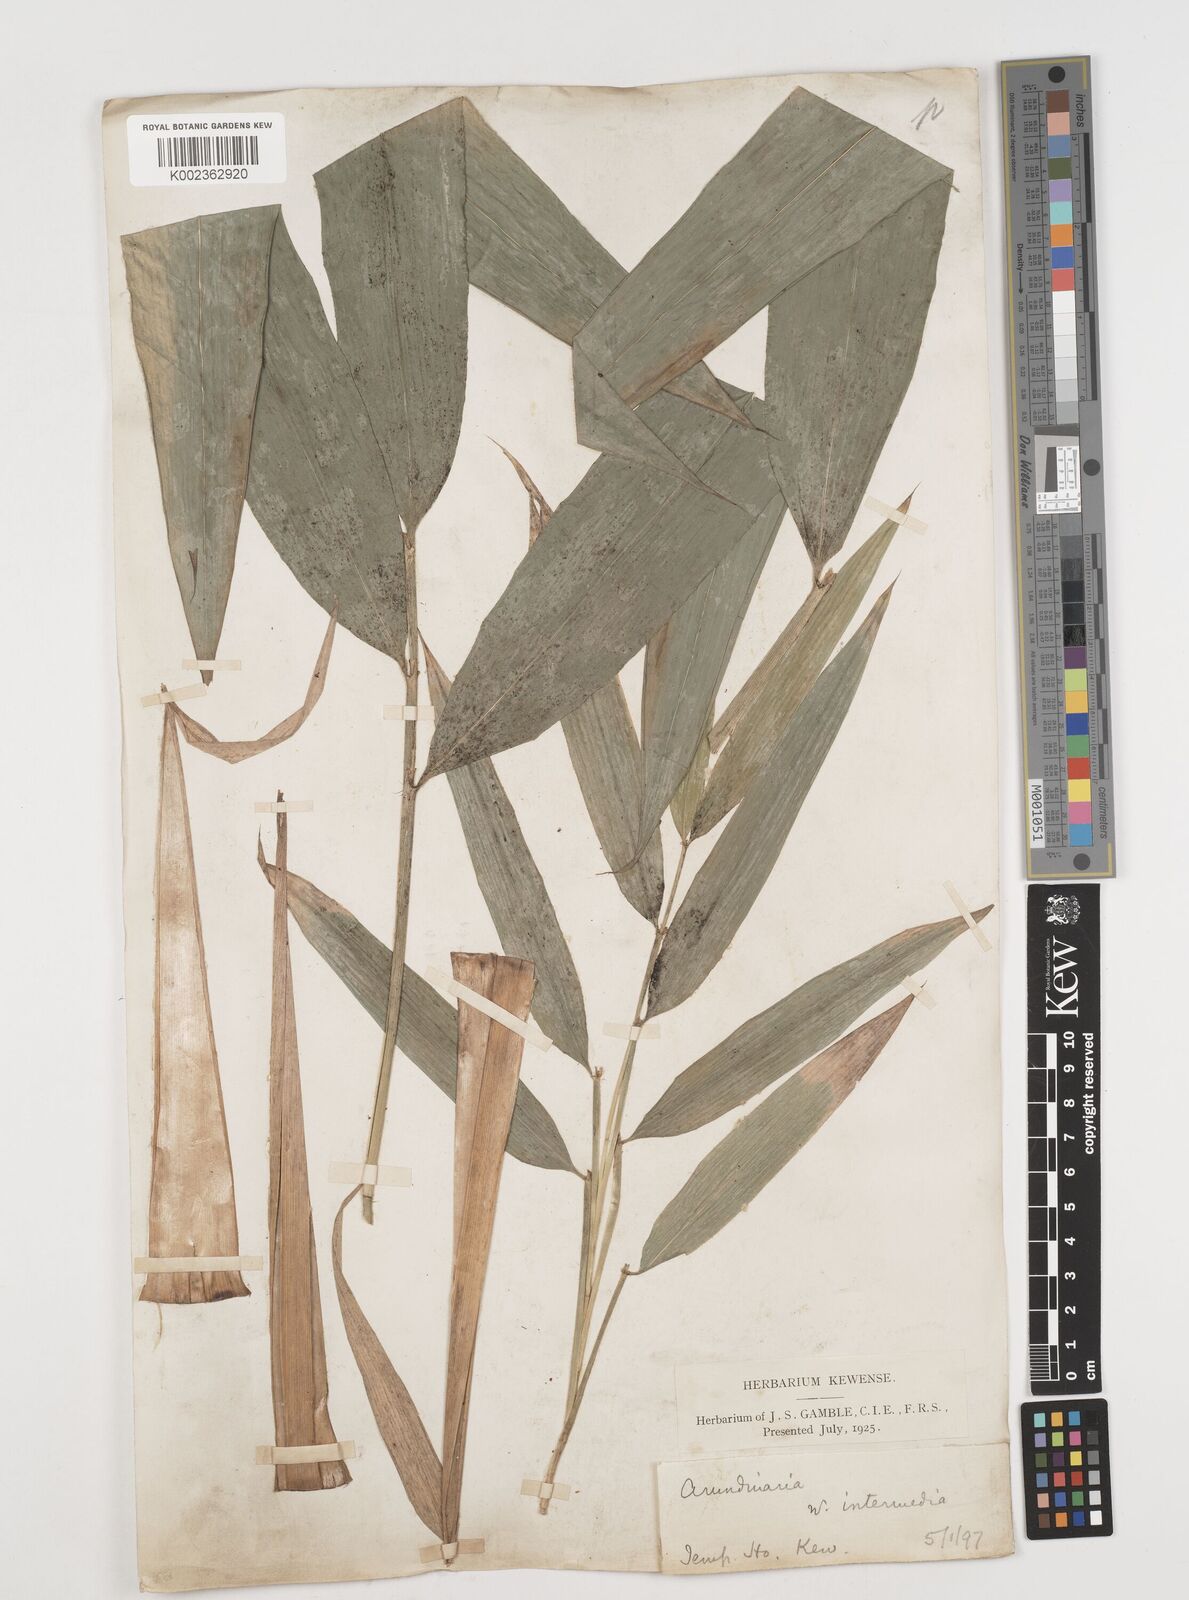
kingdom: Plantae
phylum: Tracheophyta
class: Liliopsida
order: Poales
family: Poaceae
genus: Drepanostachyum
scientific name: Drepanostachyum intermedium
